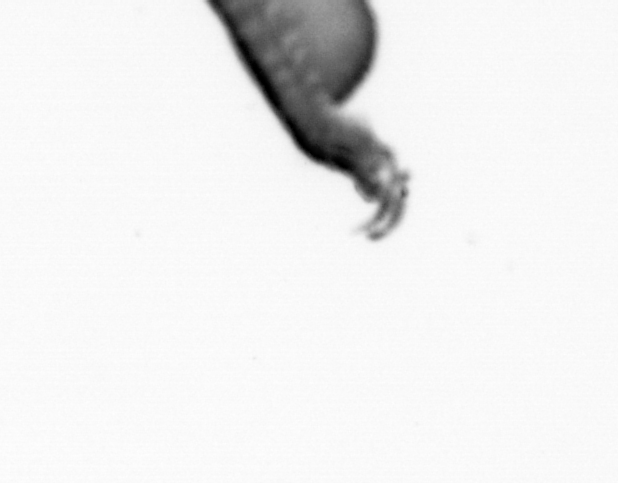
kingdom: Animalia
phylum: Annelida
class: Polychaeta
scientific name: Polychaeta
